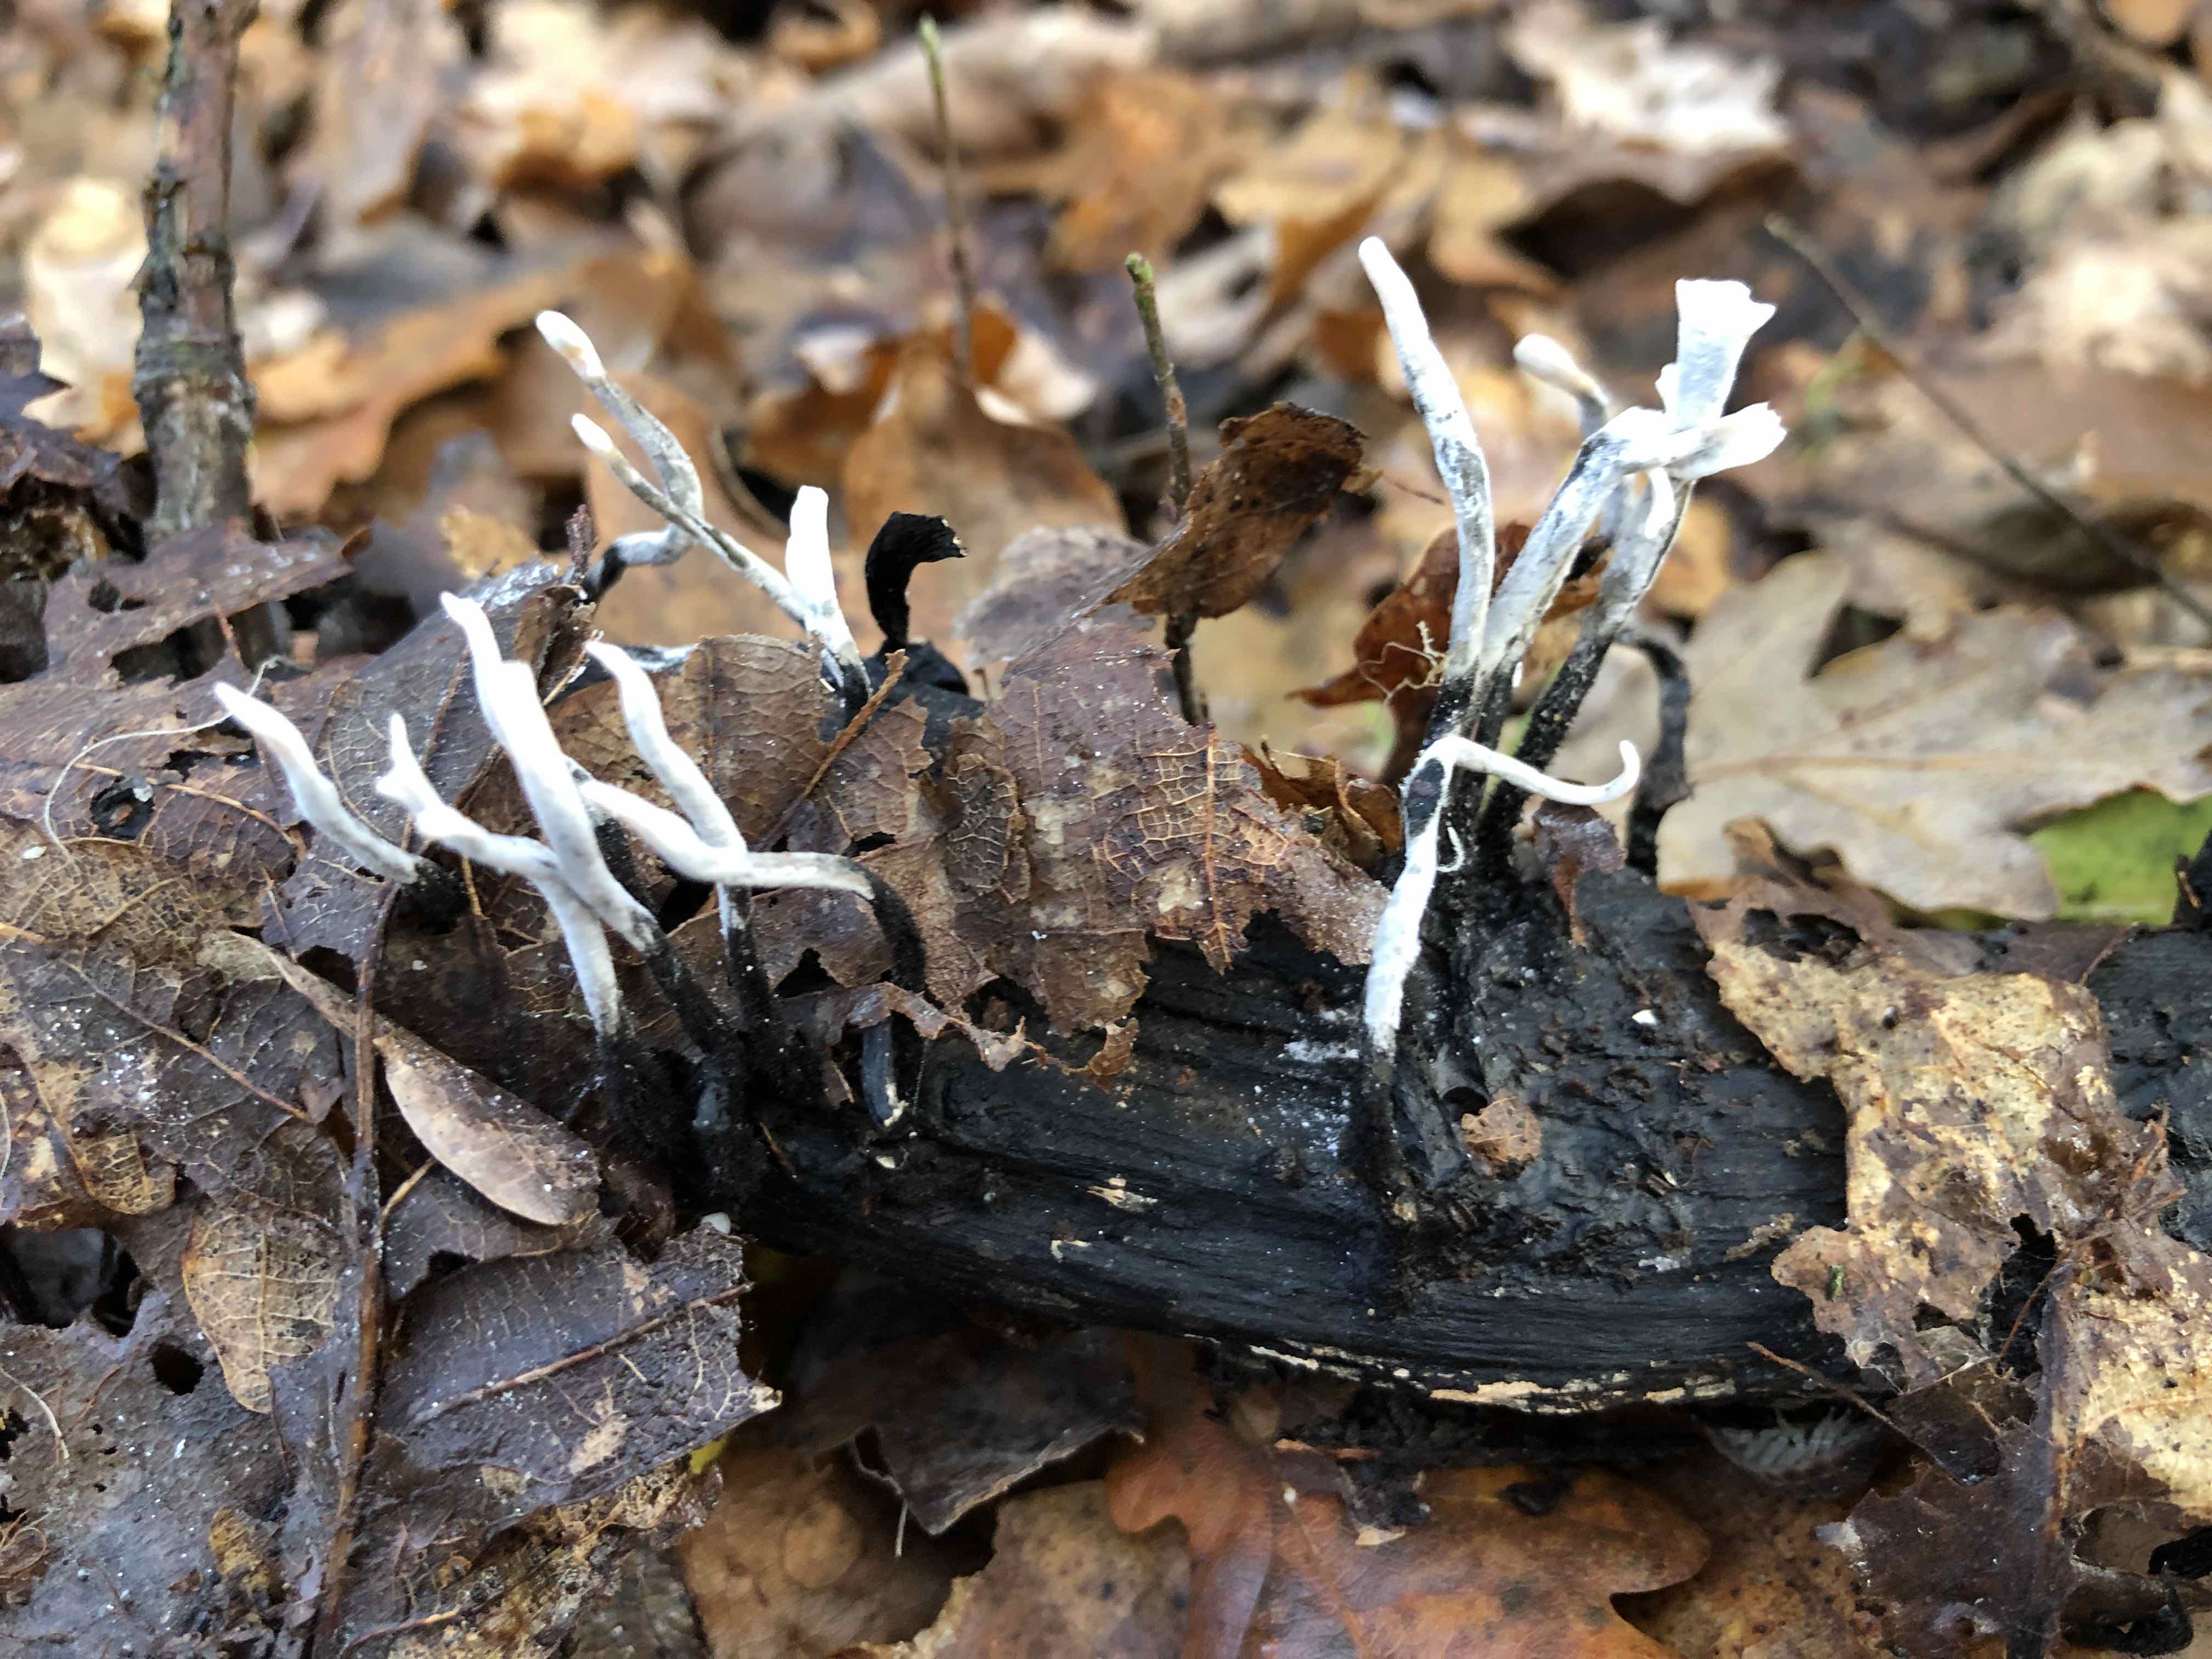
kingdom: Fungi
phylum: Ascomycota
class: Sordariomycetes
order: Xylariales
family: Xylariaceae
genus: Xylaria
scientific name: Xylaria hypoxylon
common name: grenet stødsvamp
